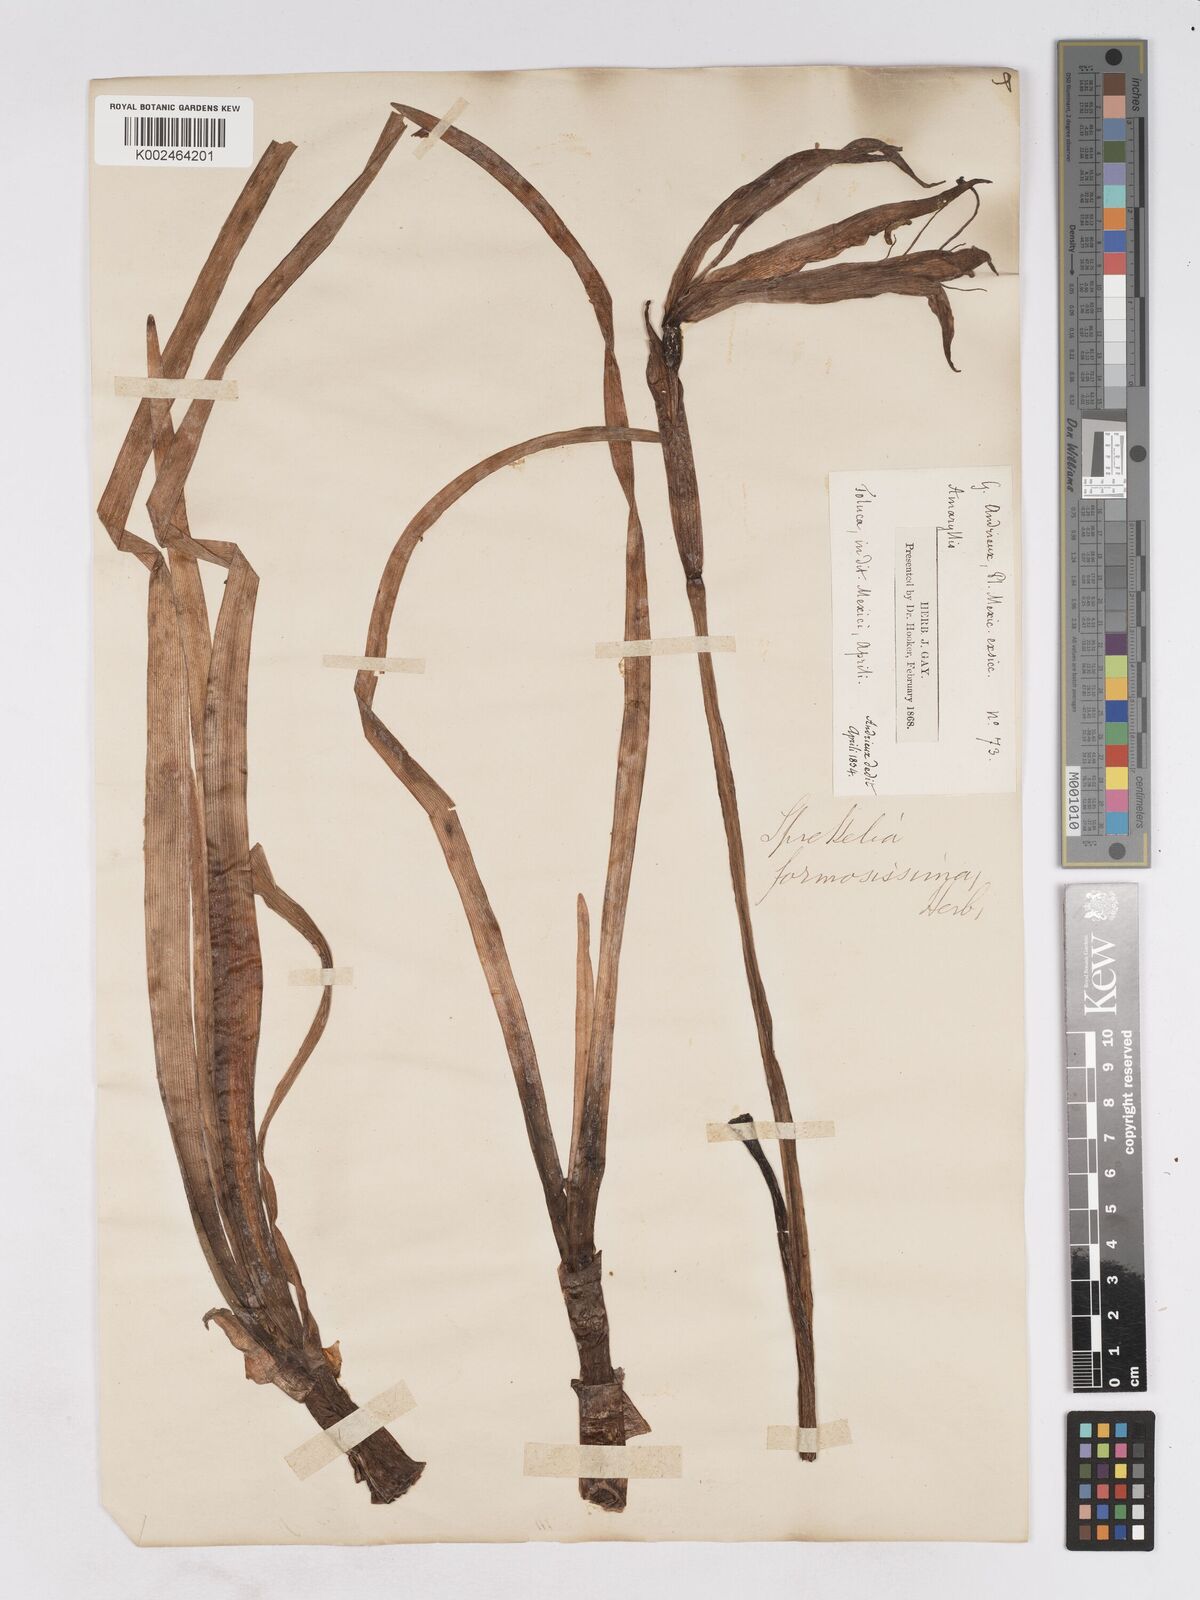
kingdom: Plantae
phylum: Tracheophyta
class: Liliopsida
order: Asparagales
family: Amaryllidaceae
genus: Sprekelia
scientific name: Sprekelia formosissima
